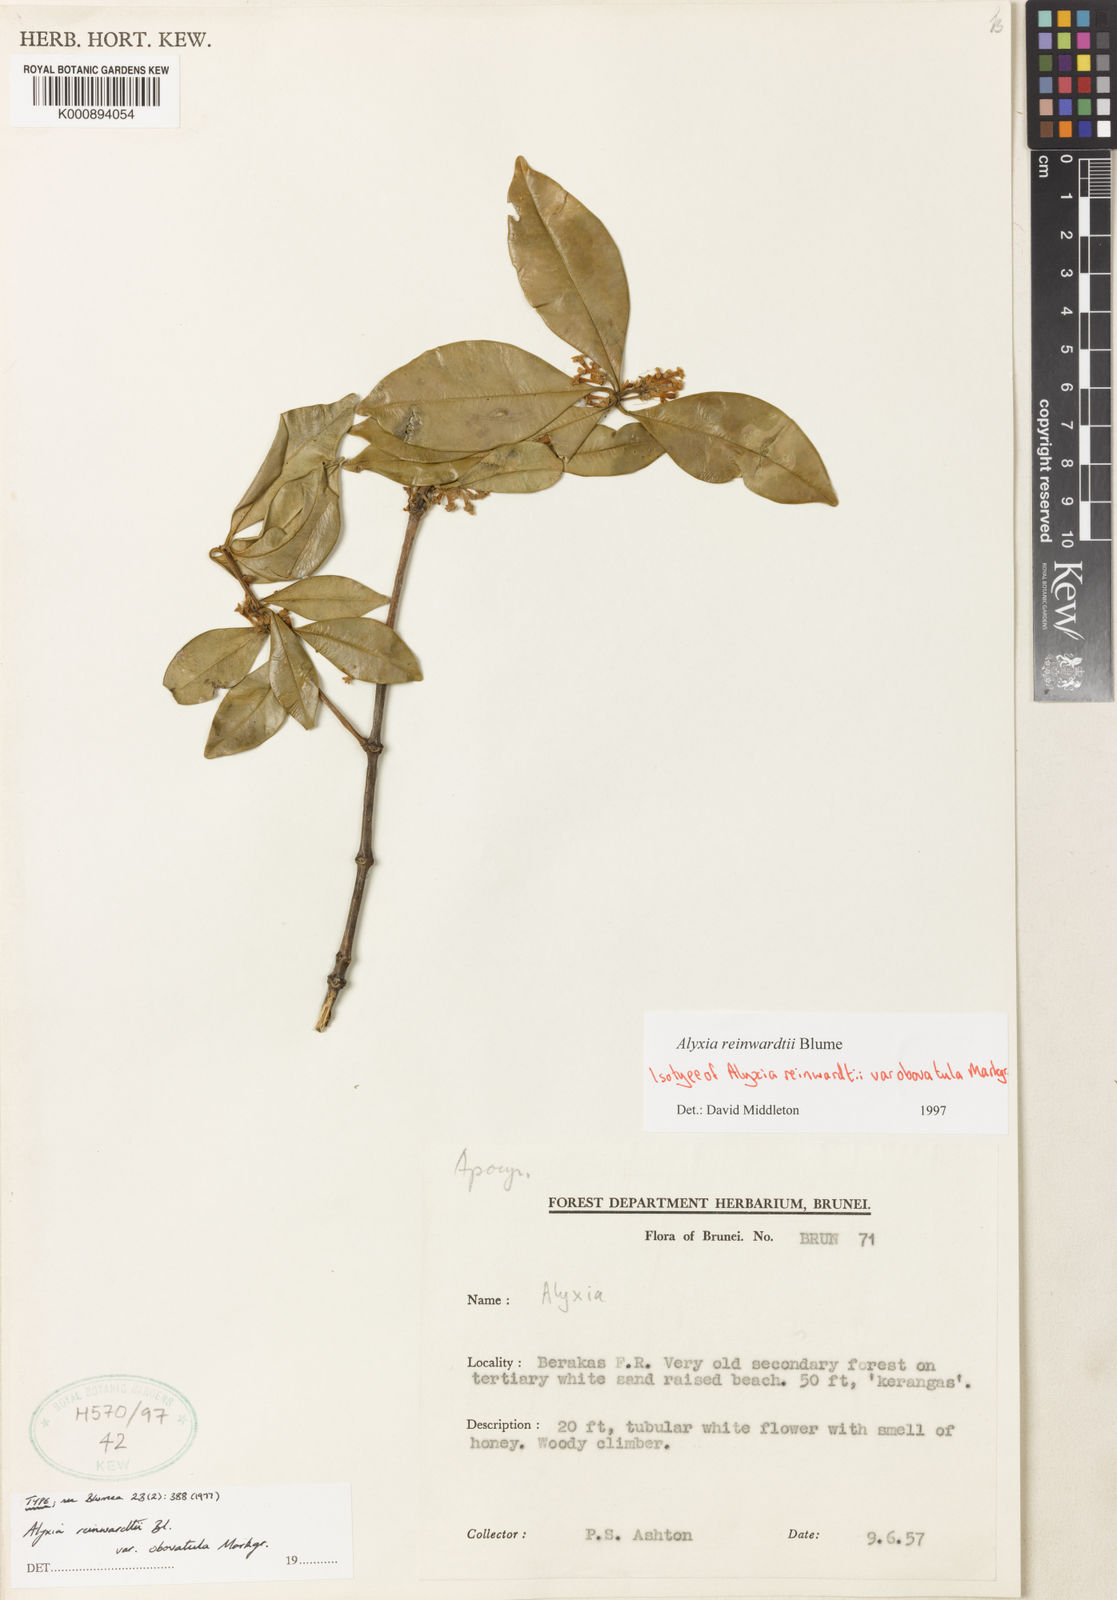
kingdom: Plantae
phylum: Tracheophyta
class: Magnoliopsida
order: Gentianales
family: Apocynaceae
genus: Alyxia
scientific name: Alyxia reinwardtii
